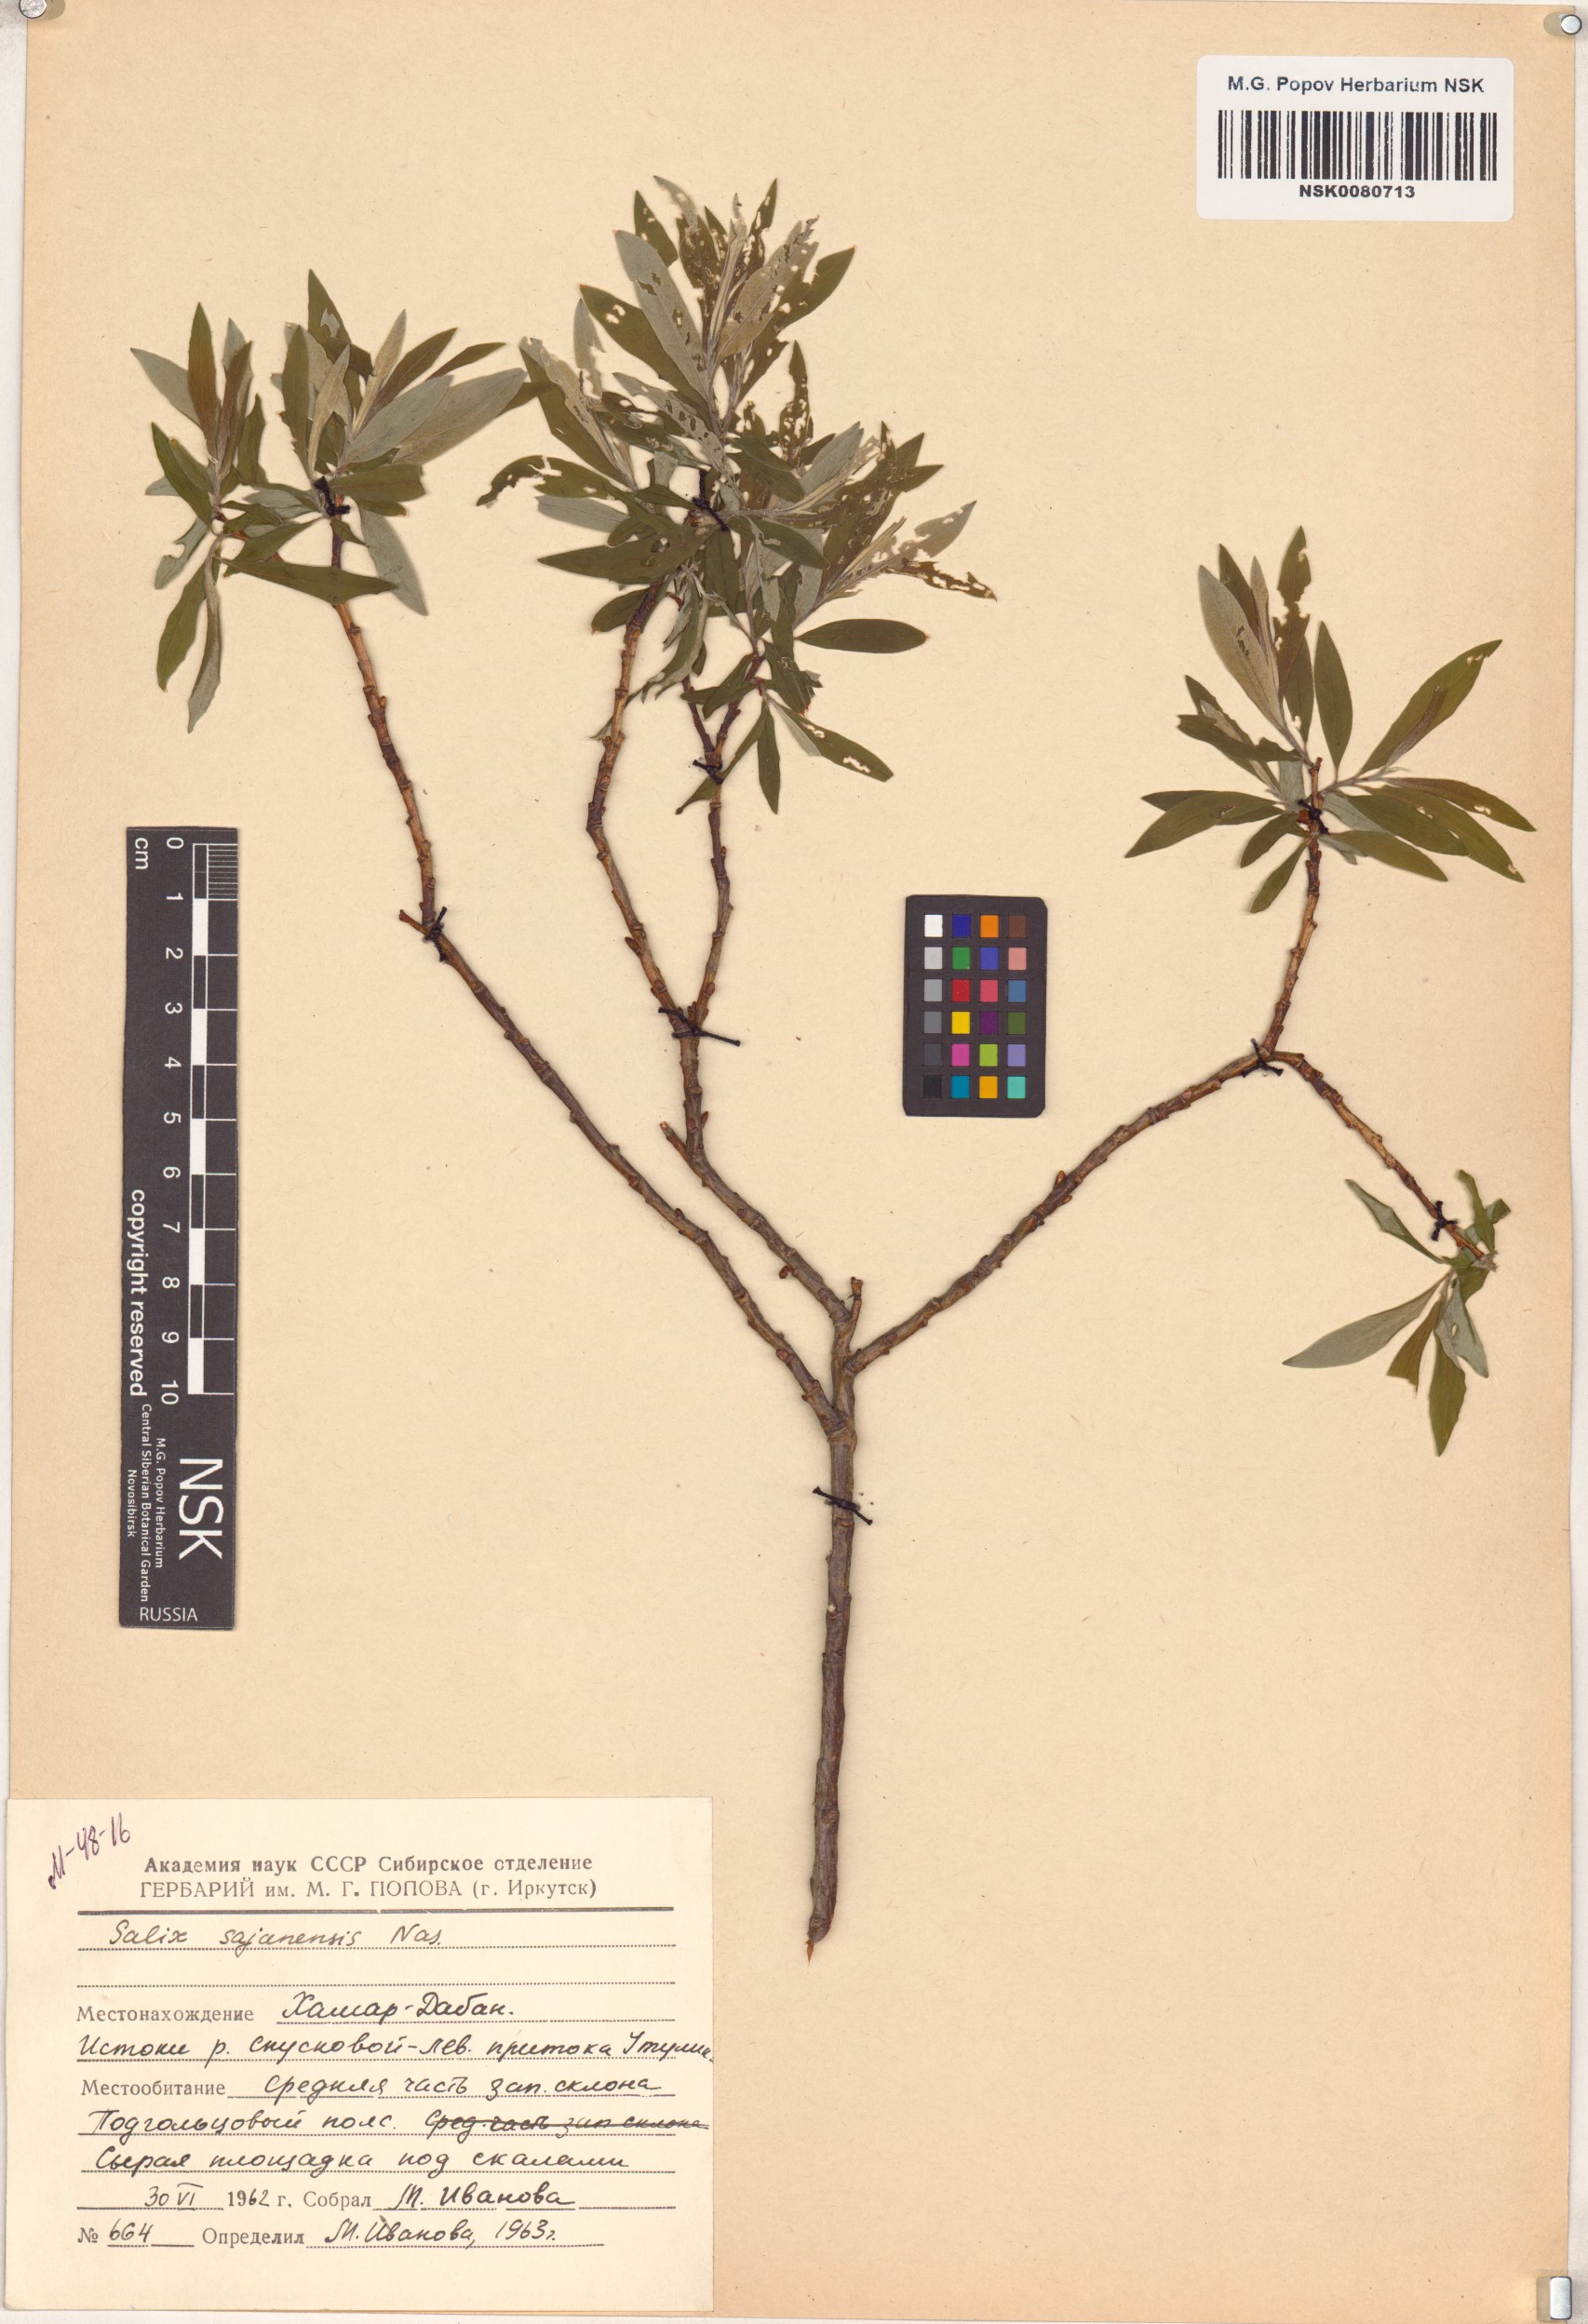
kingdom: Plantae
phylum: Tracheophyta
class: Magnoliopsida
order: Malpighiales
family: Salicaceae
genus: Salix
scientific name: Salix sajanensis
